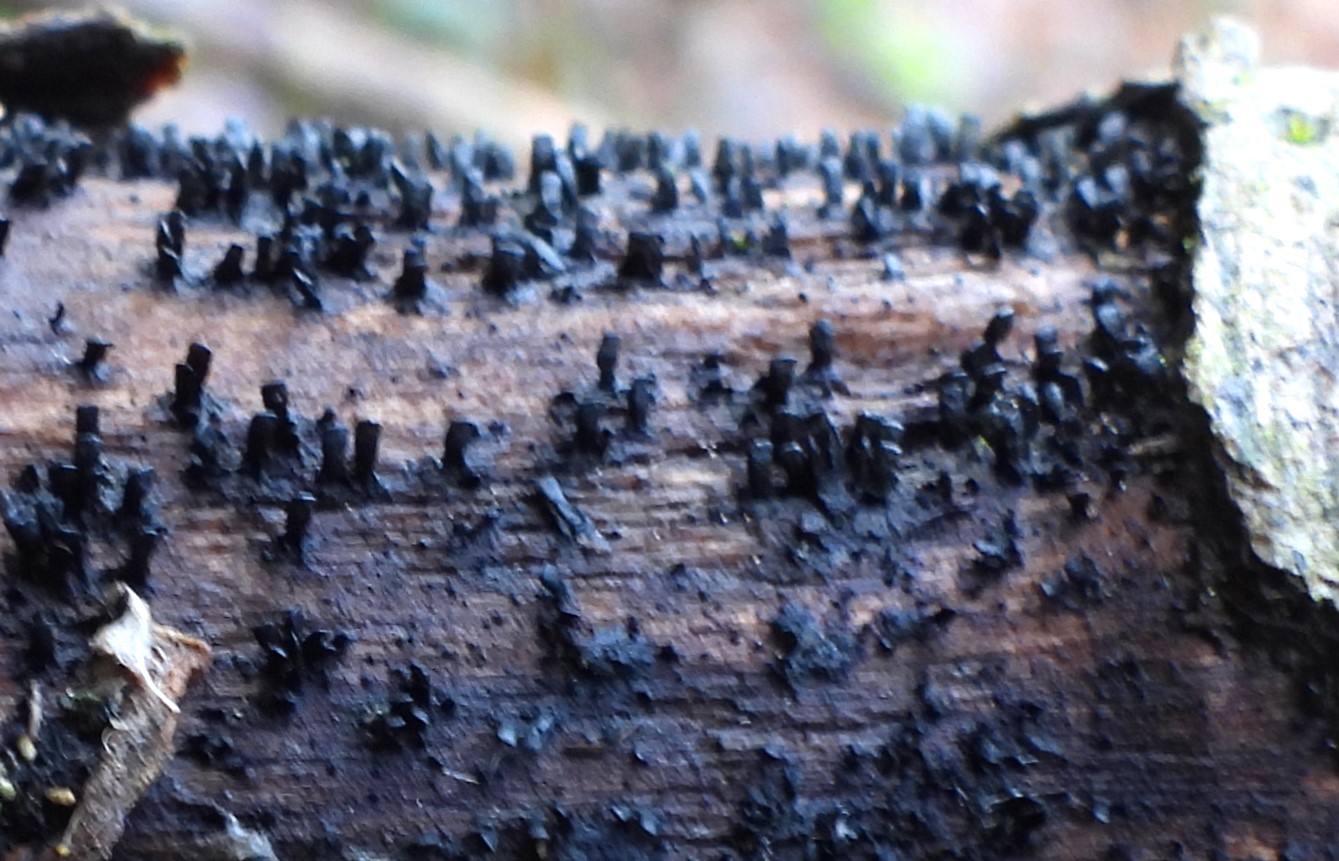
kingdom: Fungi
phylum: Ascomycota
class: Eurotiomycetes
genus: Glyphium
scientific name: Glyphium elatum
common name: kuløkse
